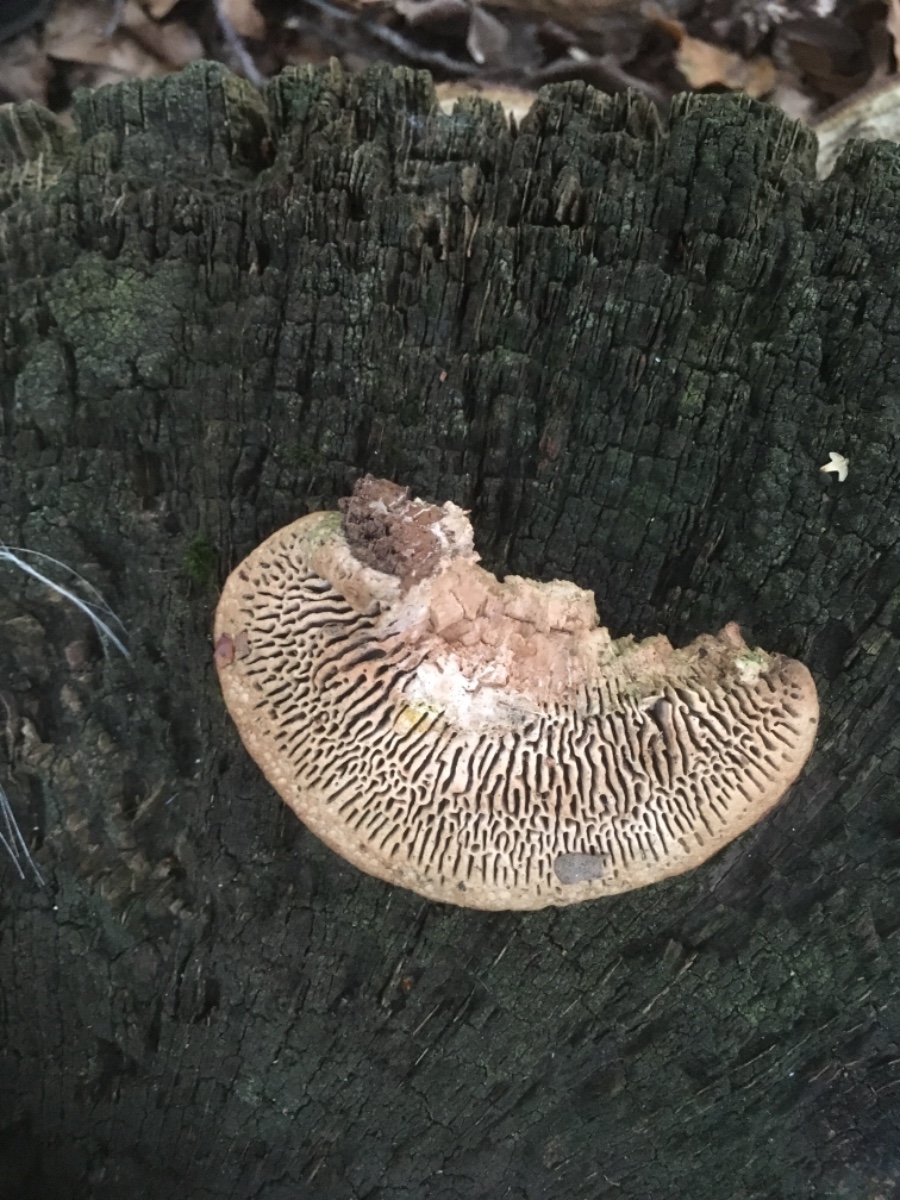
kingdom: Fungi
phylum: Basidiomycota
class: Agaricomycetes
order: Polyporales
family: Fomitopsidaceae
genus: Daedalea
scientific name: Daedalea quercina
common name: ege-labyrintsvamp
